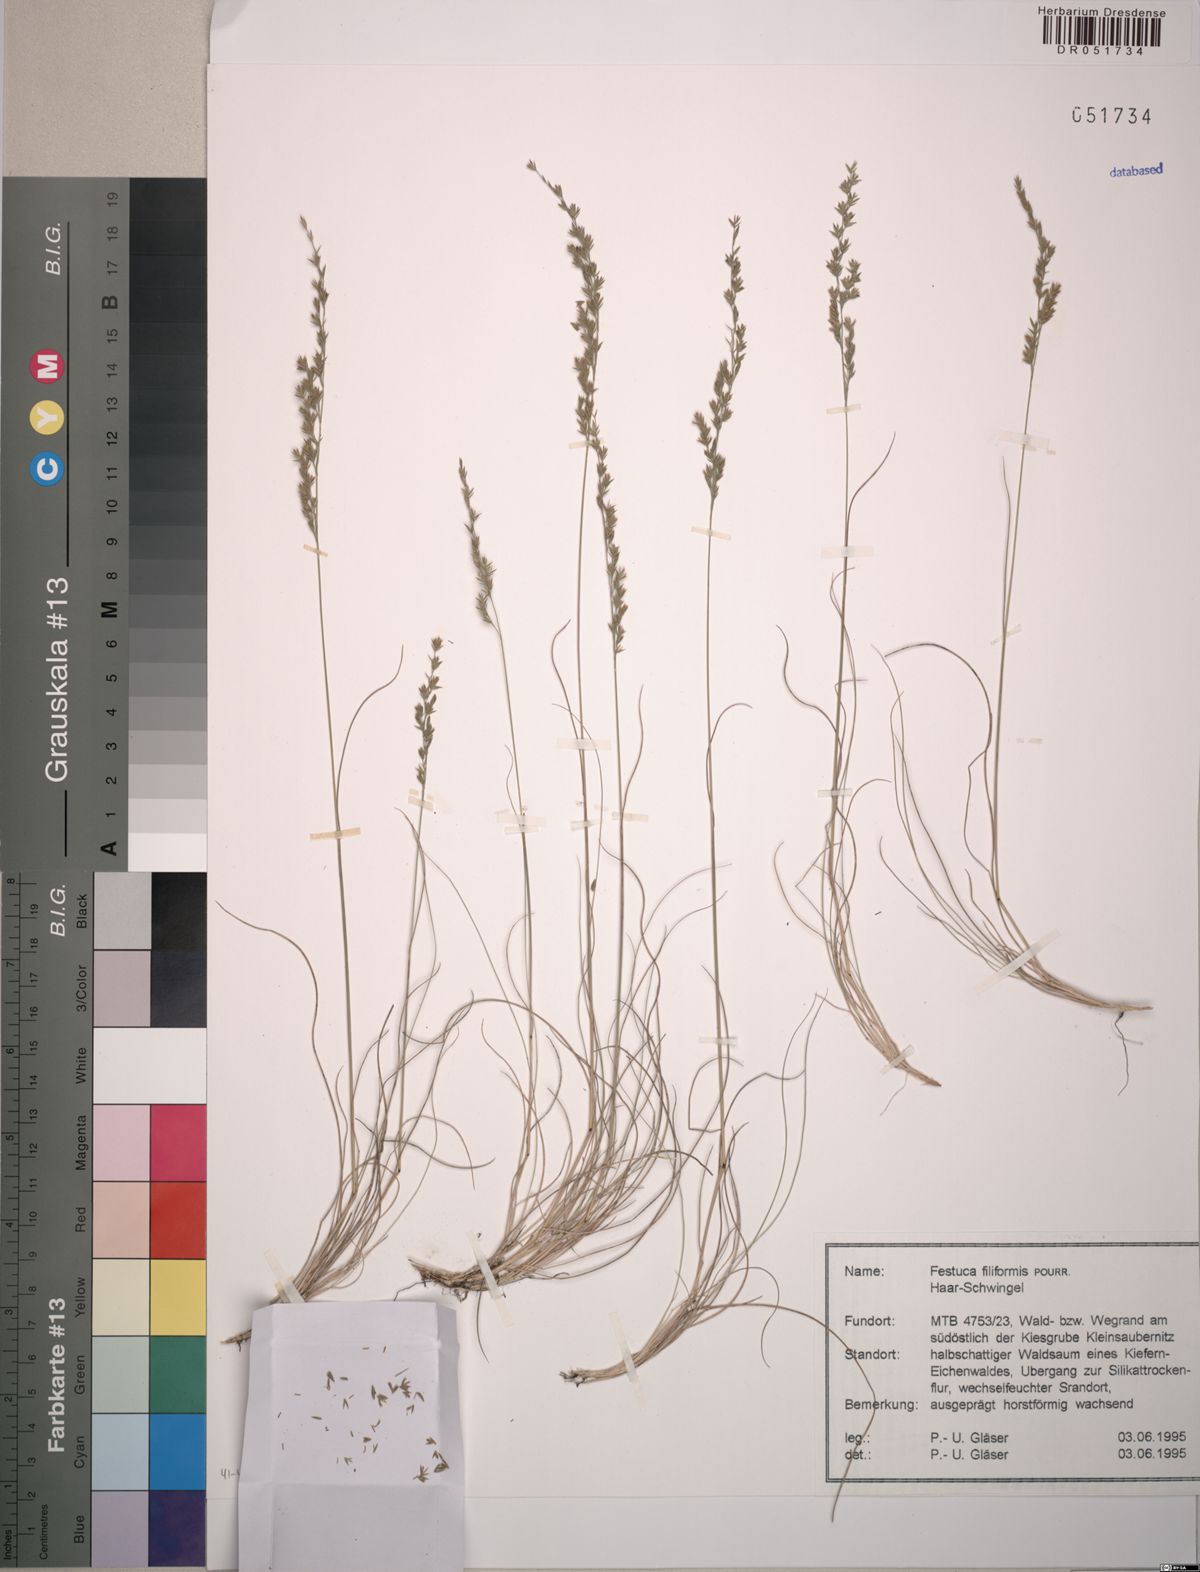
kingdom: Plantae
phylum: Tracheophyta
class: Liliopsida
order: Poales
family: Poaceae
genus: Festuca
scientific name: Festuca filiformis
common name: Fine-leaved sheep's-fescue
